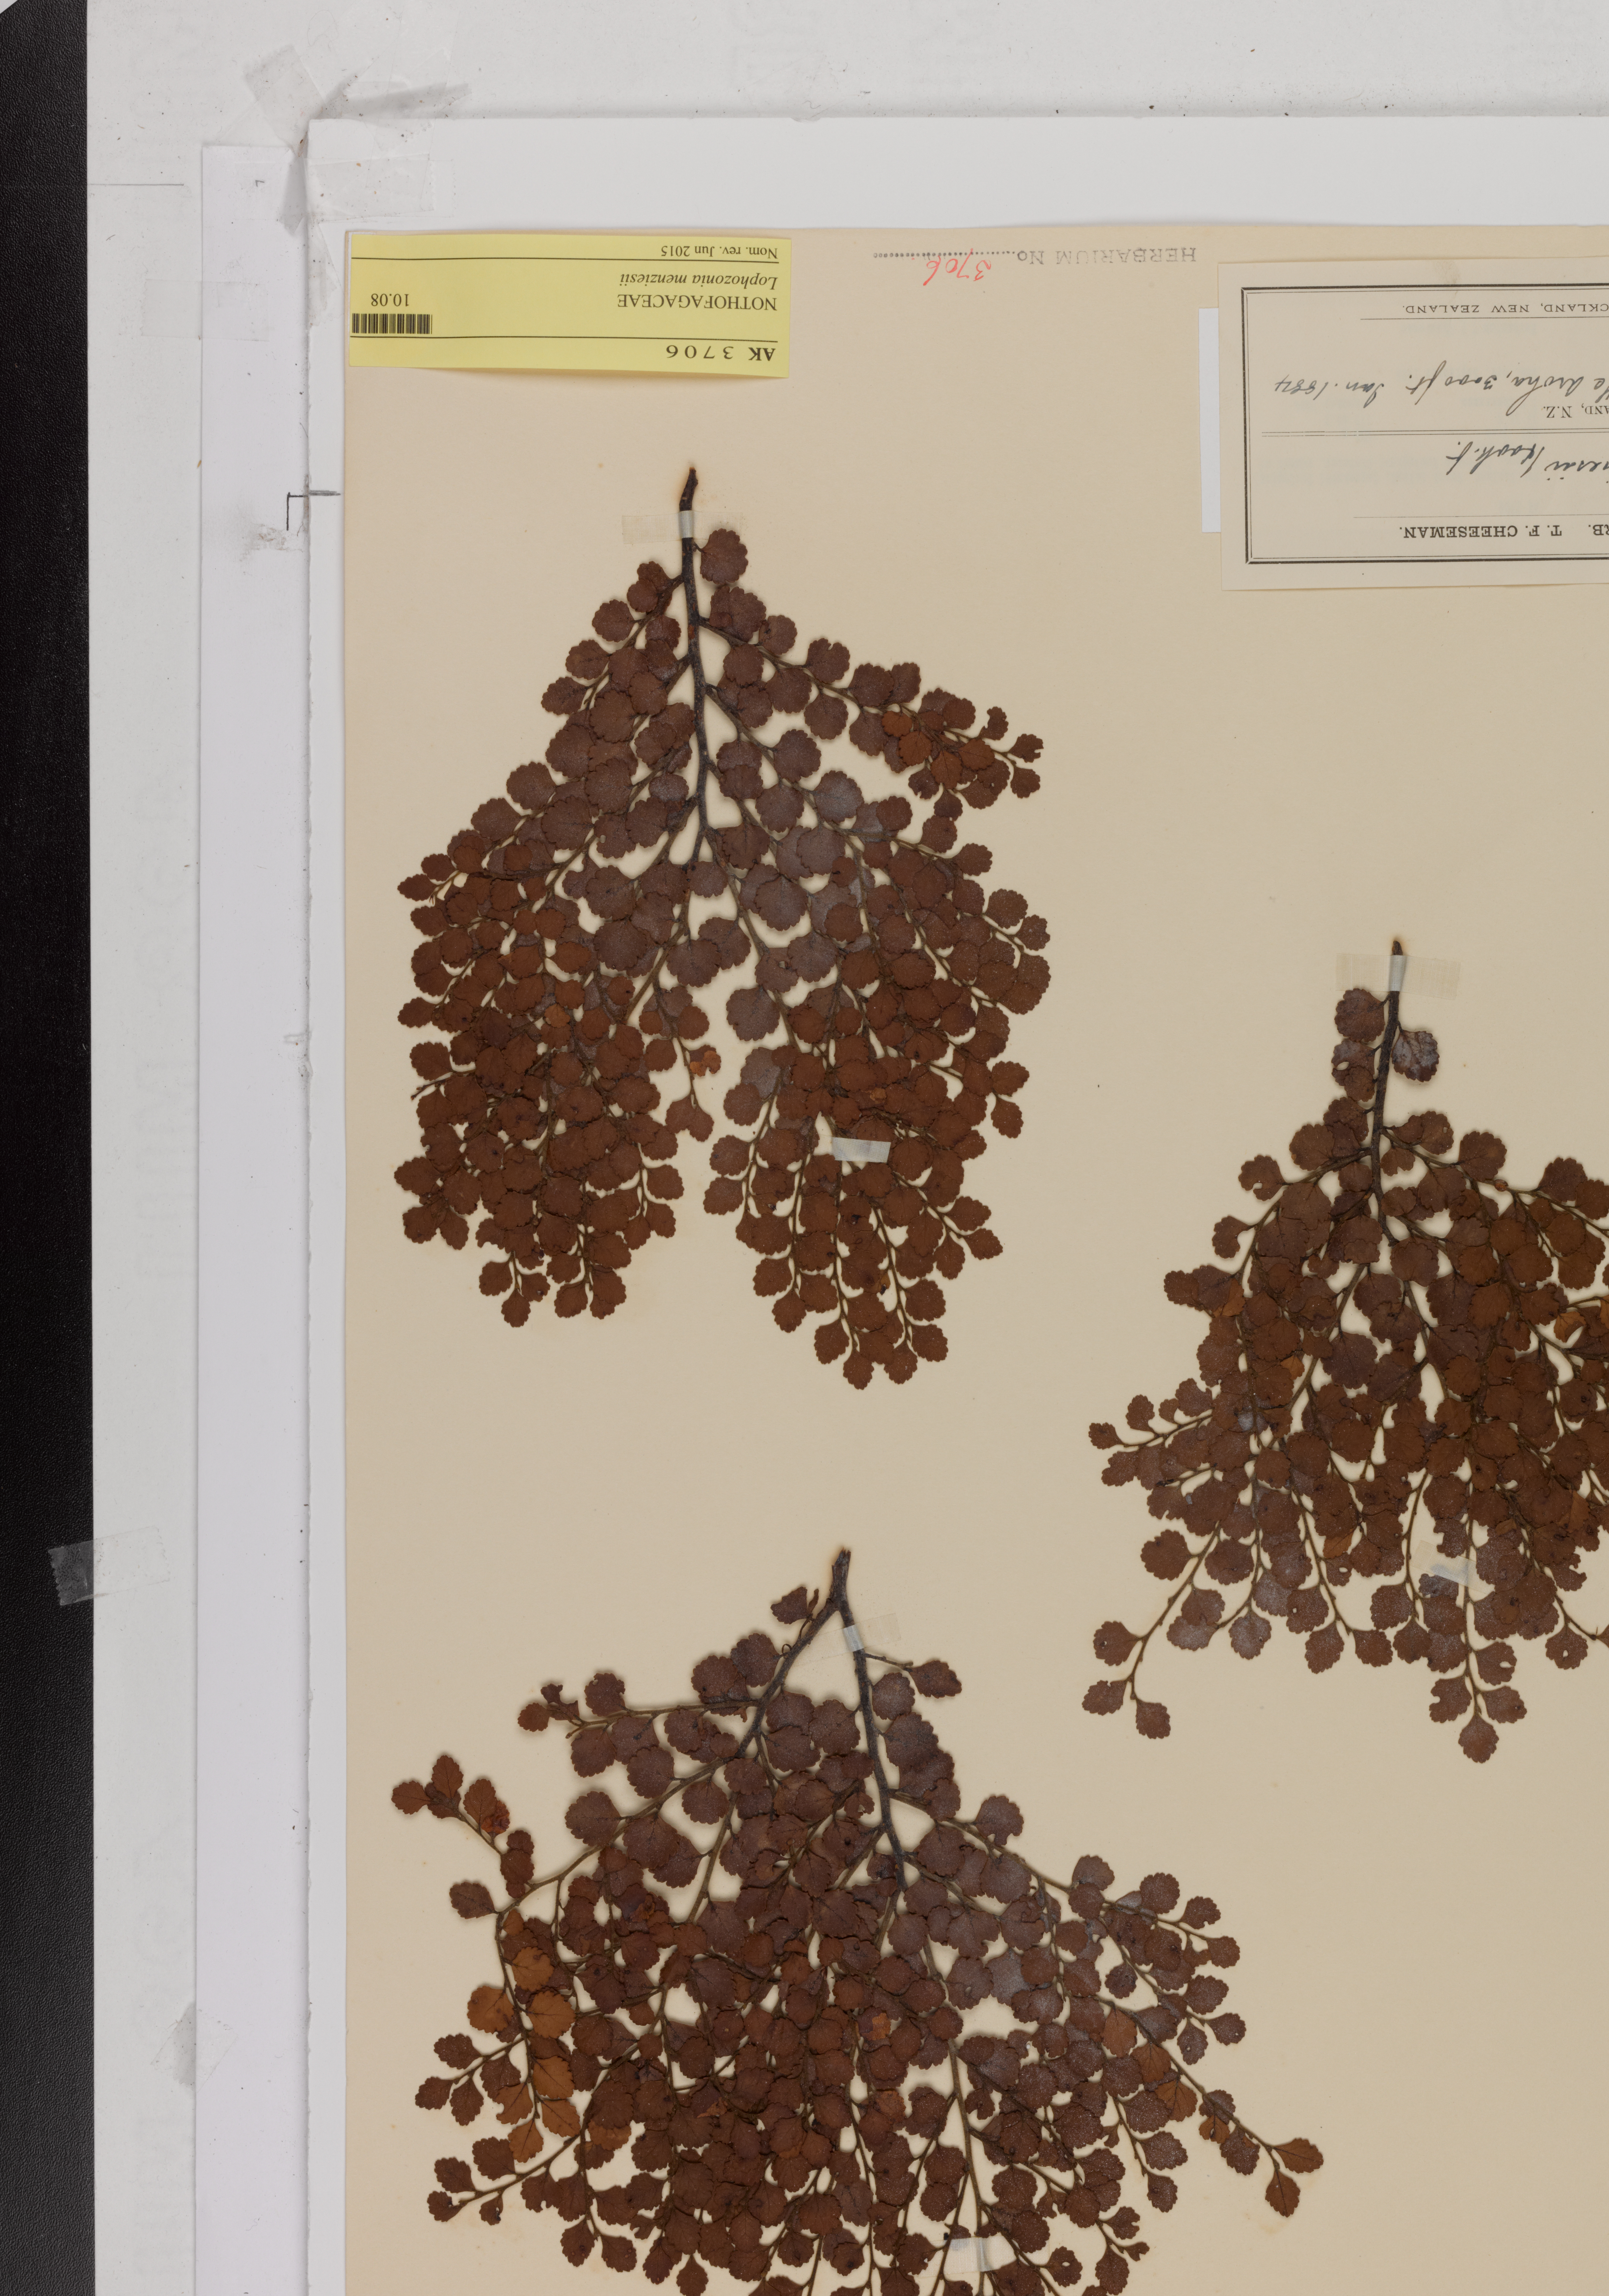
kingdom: Plantae
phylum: Tracheophyta
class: Magnoliopsida
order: Fagales
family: Nothofagaceae
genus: Nothofagus
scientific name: Nothofagus menziesii
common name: Silver beech
